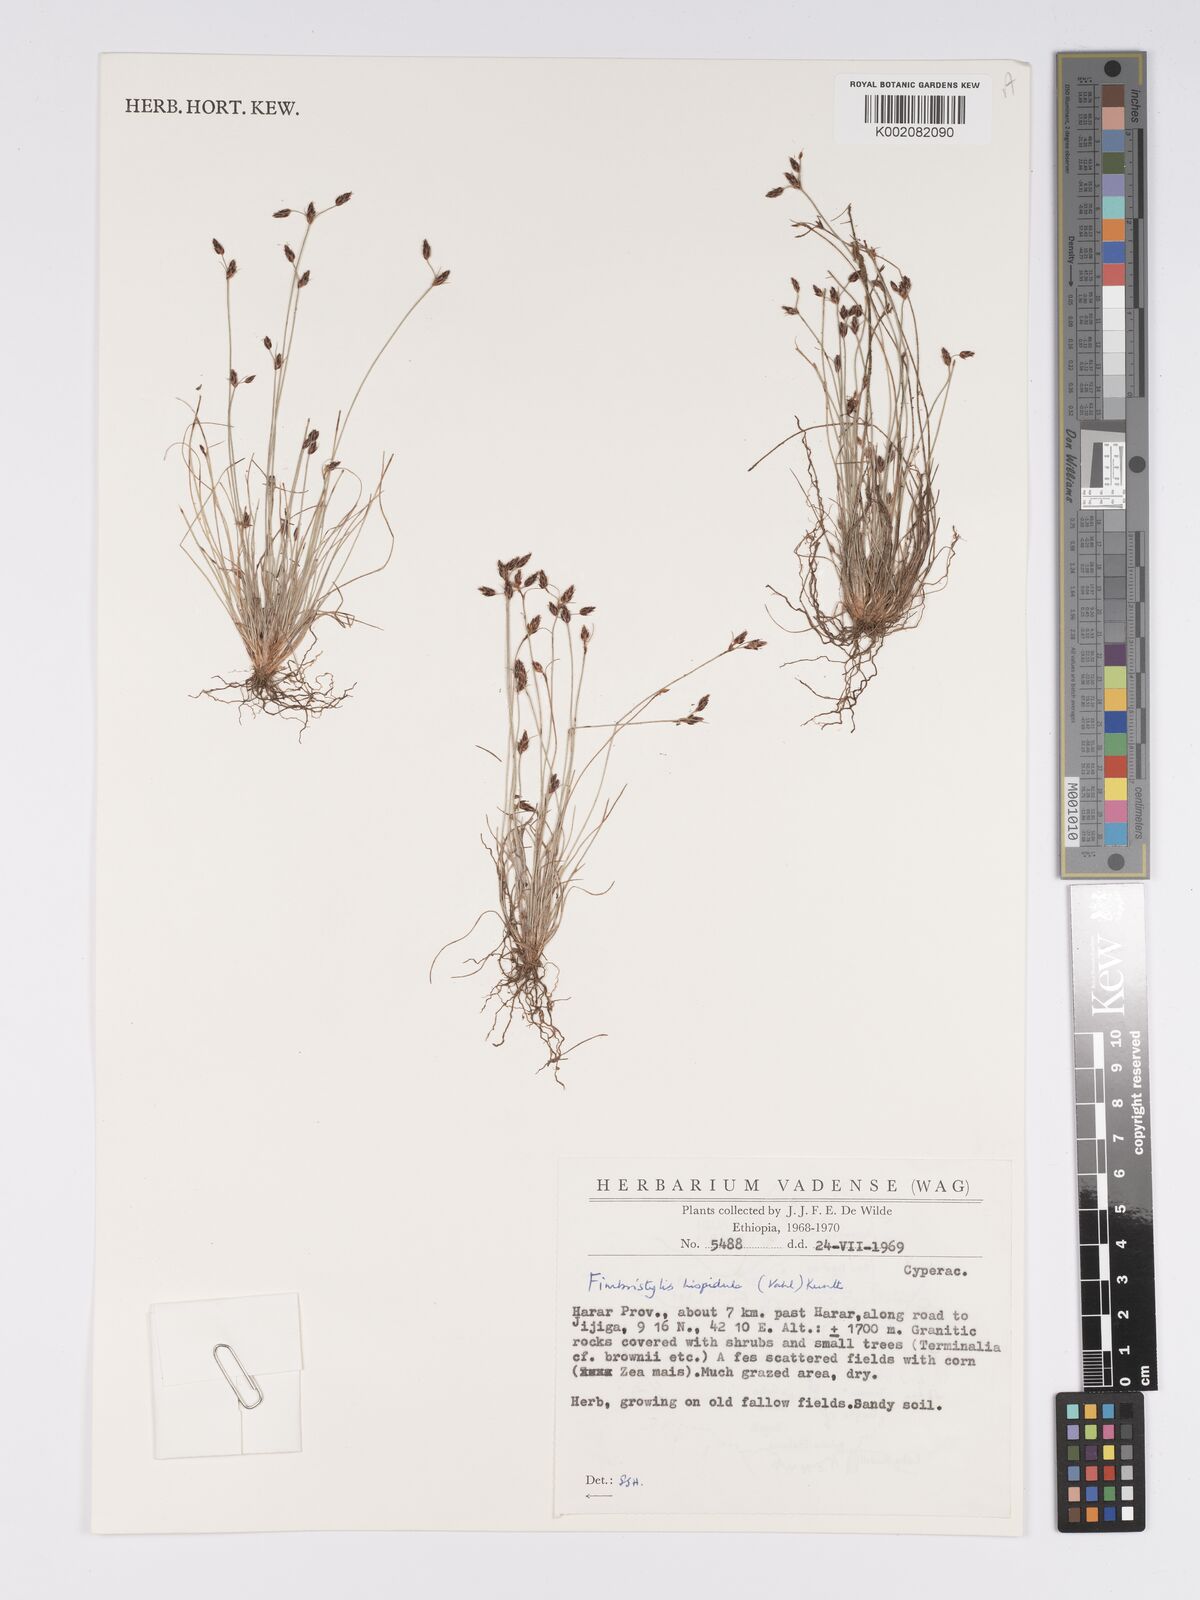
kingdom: Plantae
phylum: Tracheophyta
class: Liliopsida
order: Poales
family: Cyperaceae
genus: Bulbostylis
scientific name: Bulbostylis hispidula
